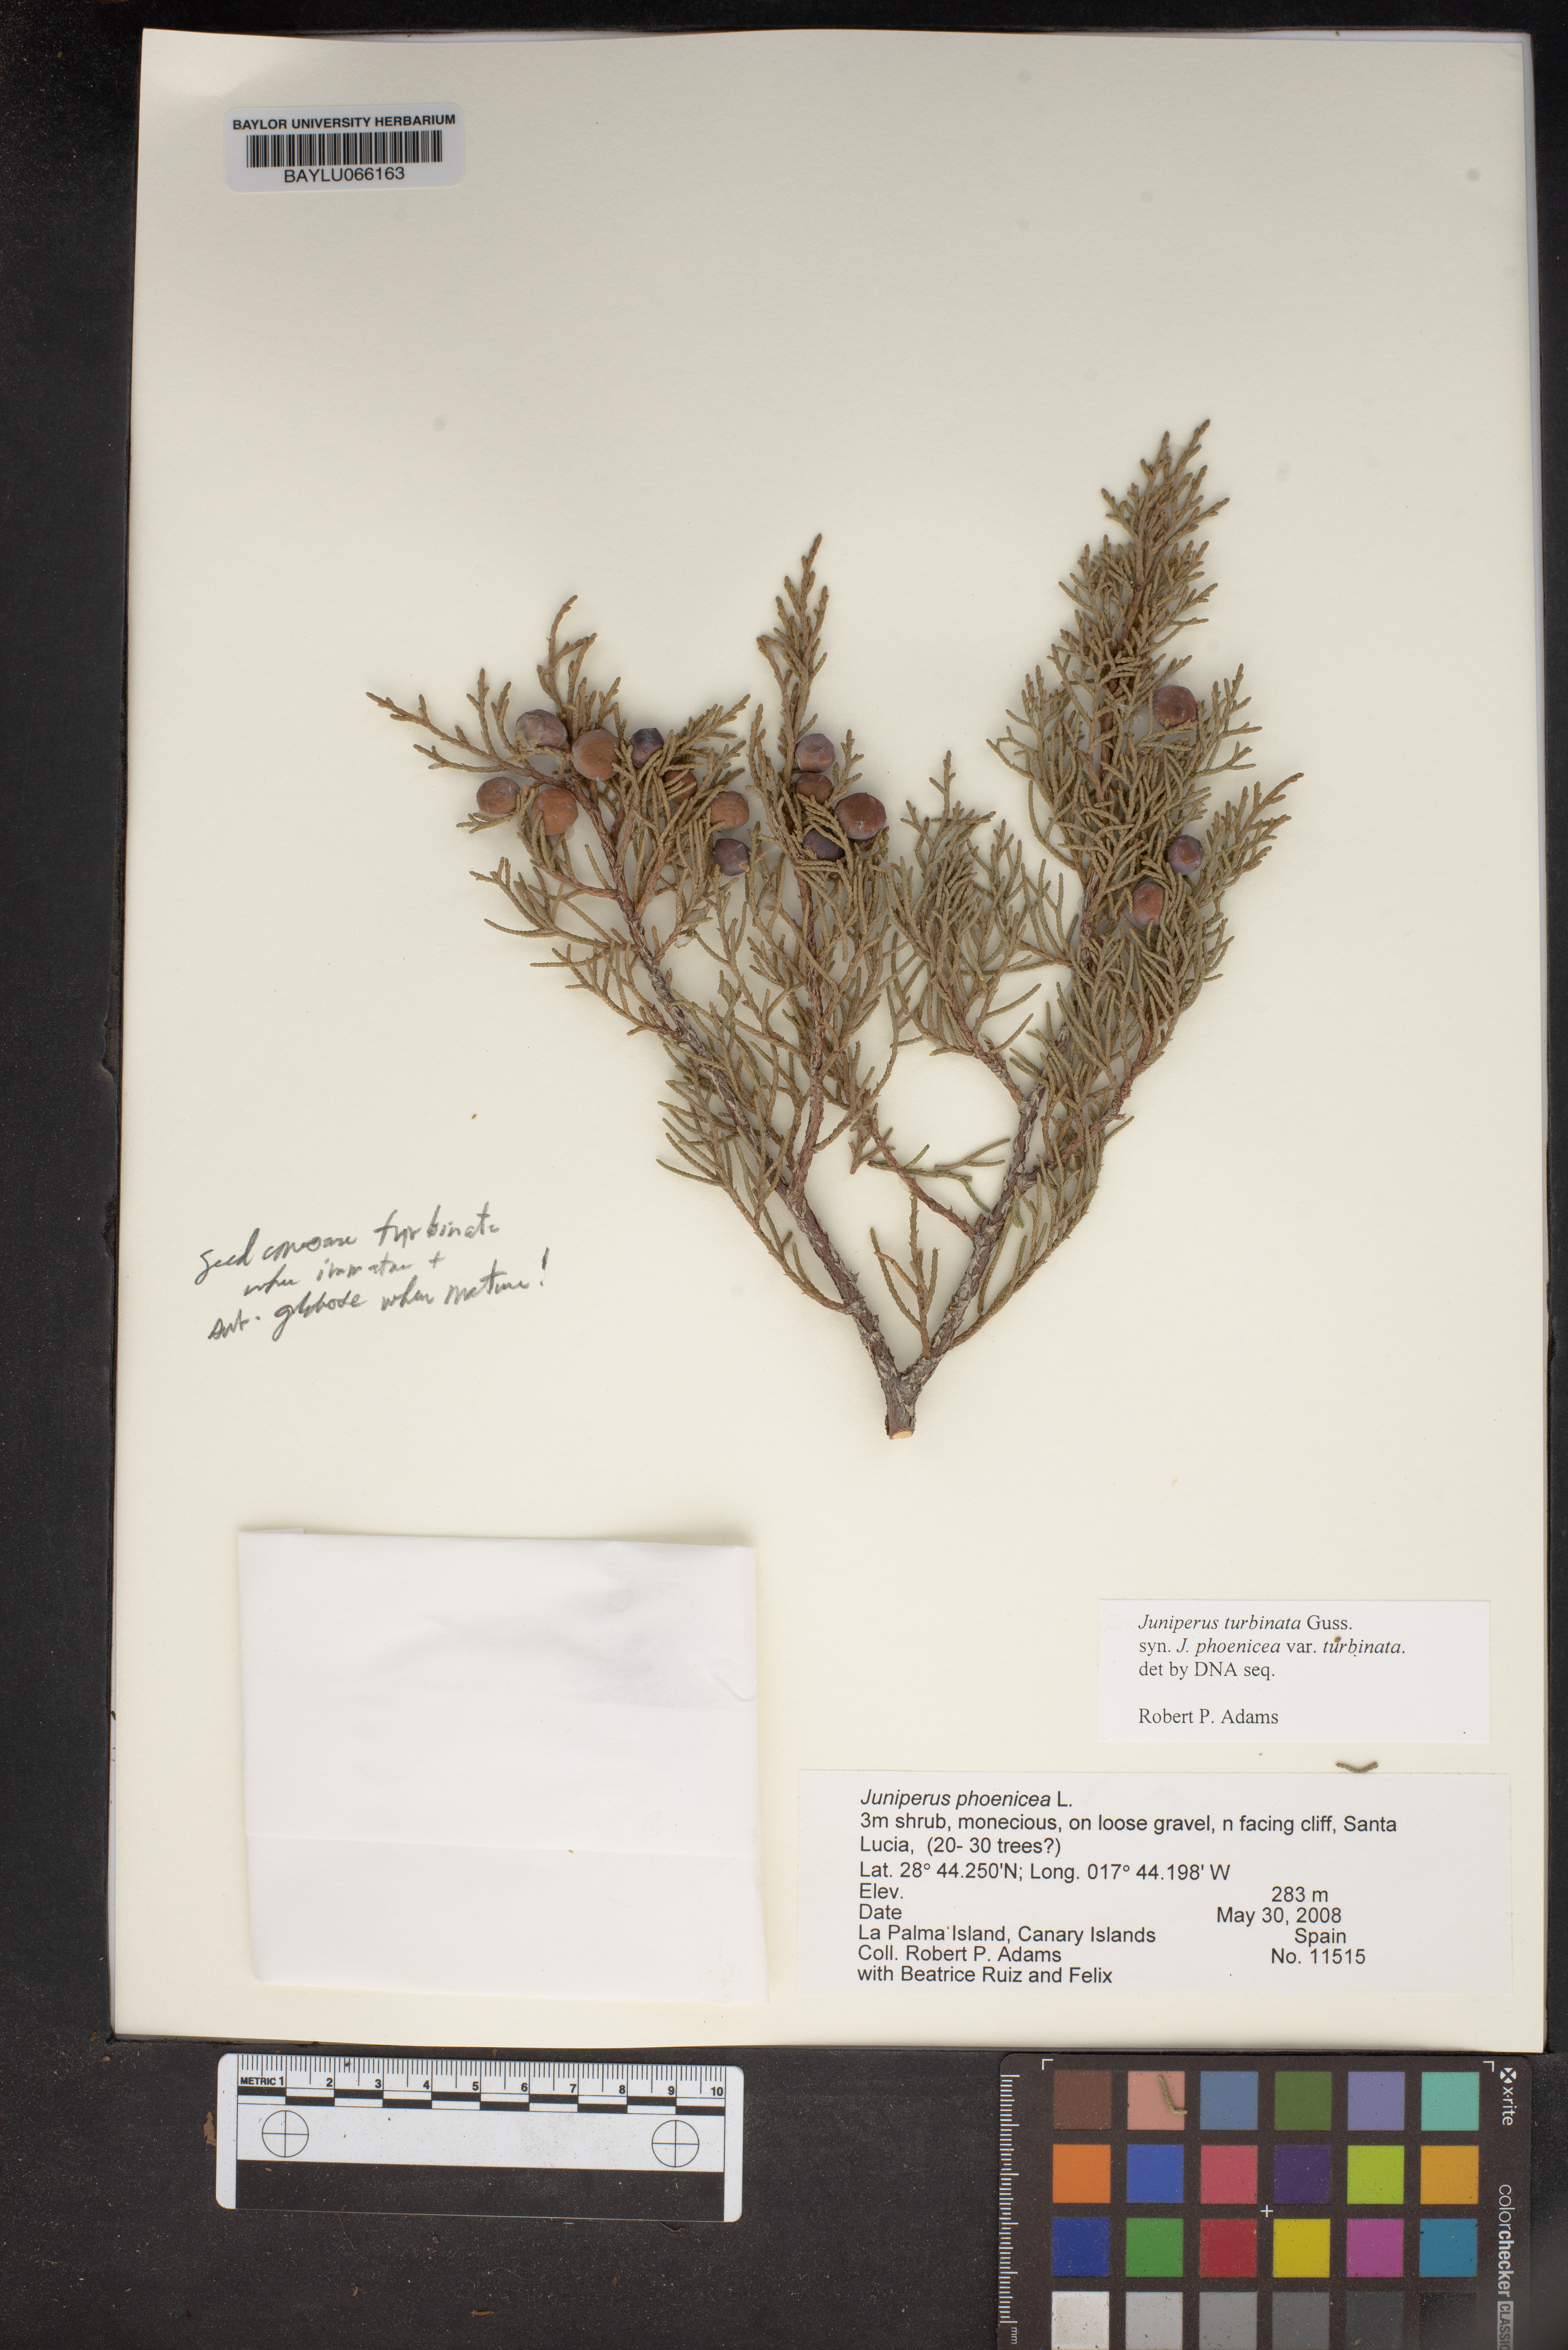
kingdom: Plantae
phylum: Tracheophyta
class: Pinopsida
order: Pinales
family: Cupressaceae
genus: Juniperus
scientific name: Juniperus phoenicea
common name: Phoenician juniper
